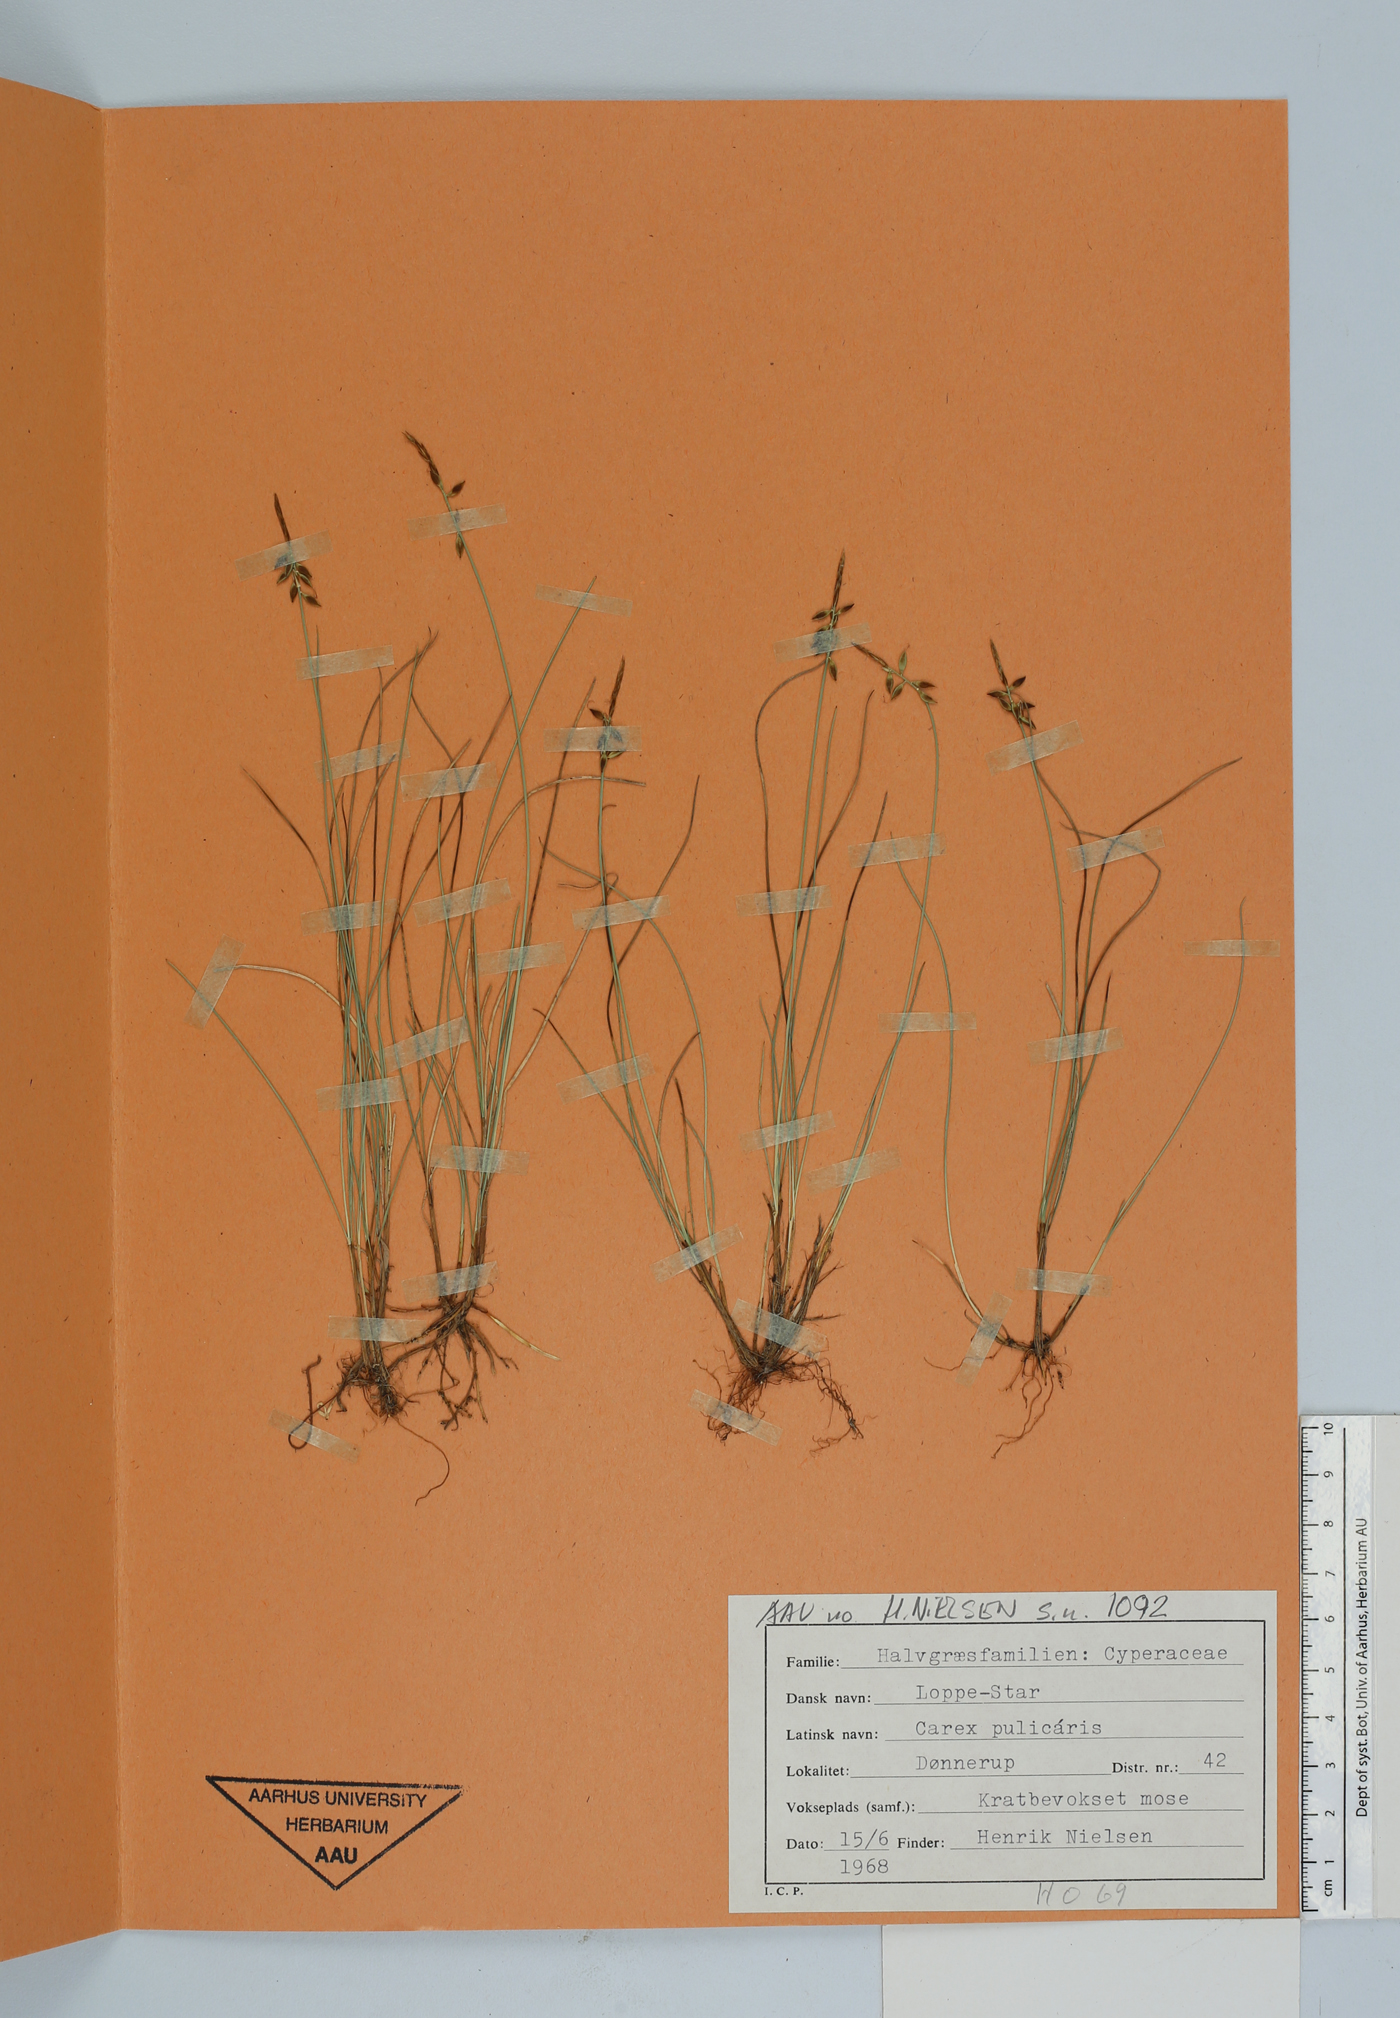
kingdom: Plantae
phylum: Tracheophyta
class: Liliopsida
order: Poales
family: Cyperaceae
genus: Carex
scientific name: Carex pulicaris
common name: Flea sedge
